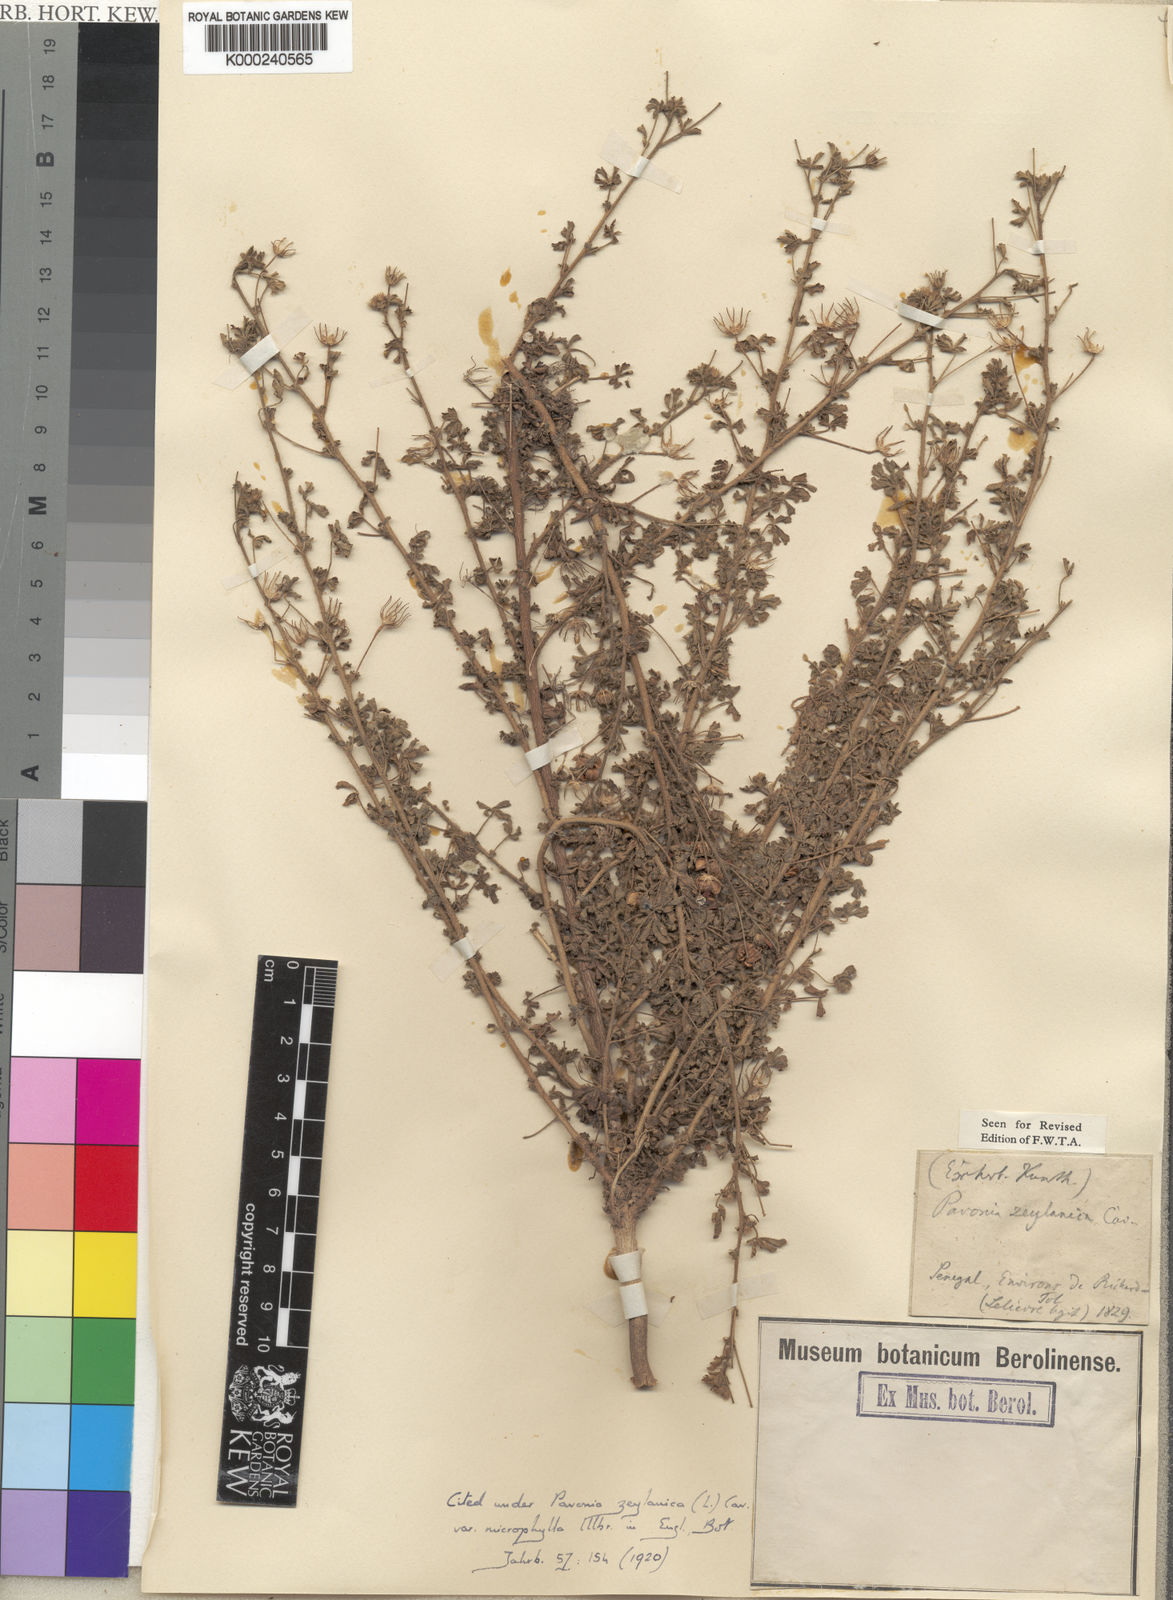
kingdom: Plantae
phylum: Tracheophyta
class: Magnoliopsida
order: Malvales
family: Malvaceae
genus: Pavonia
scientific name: Pavonia
